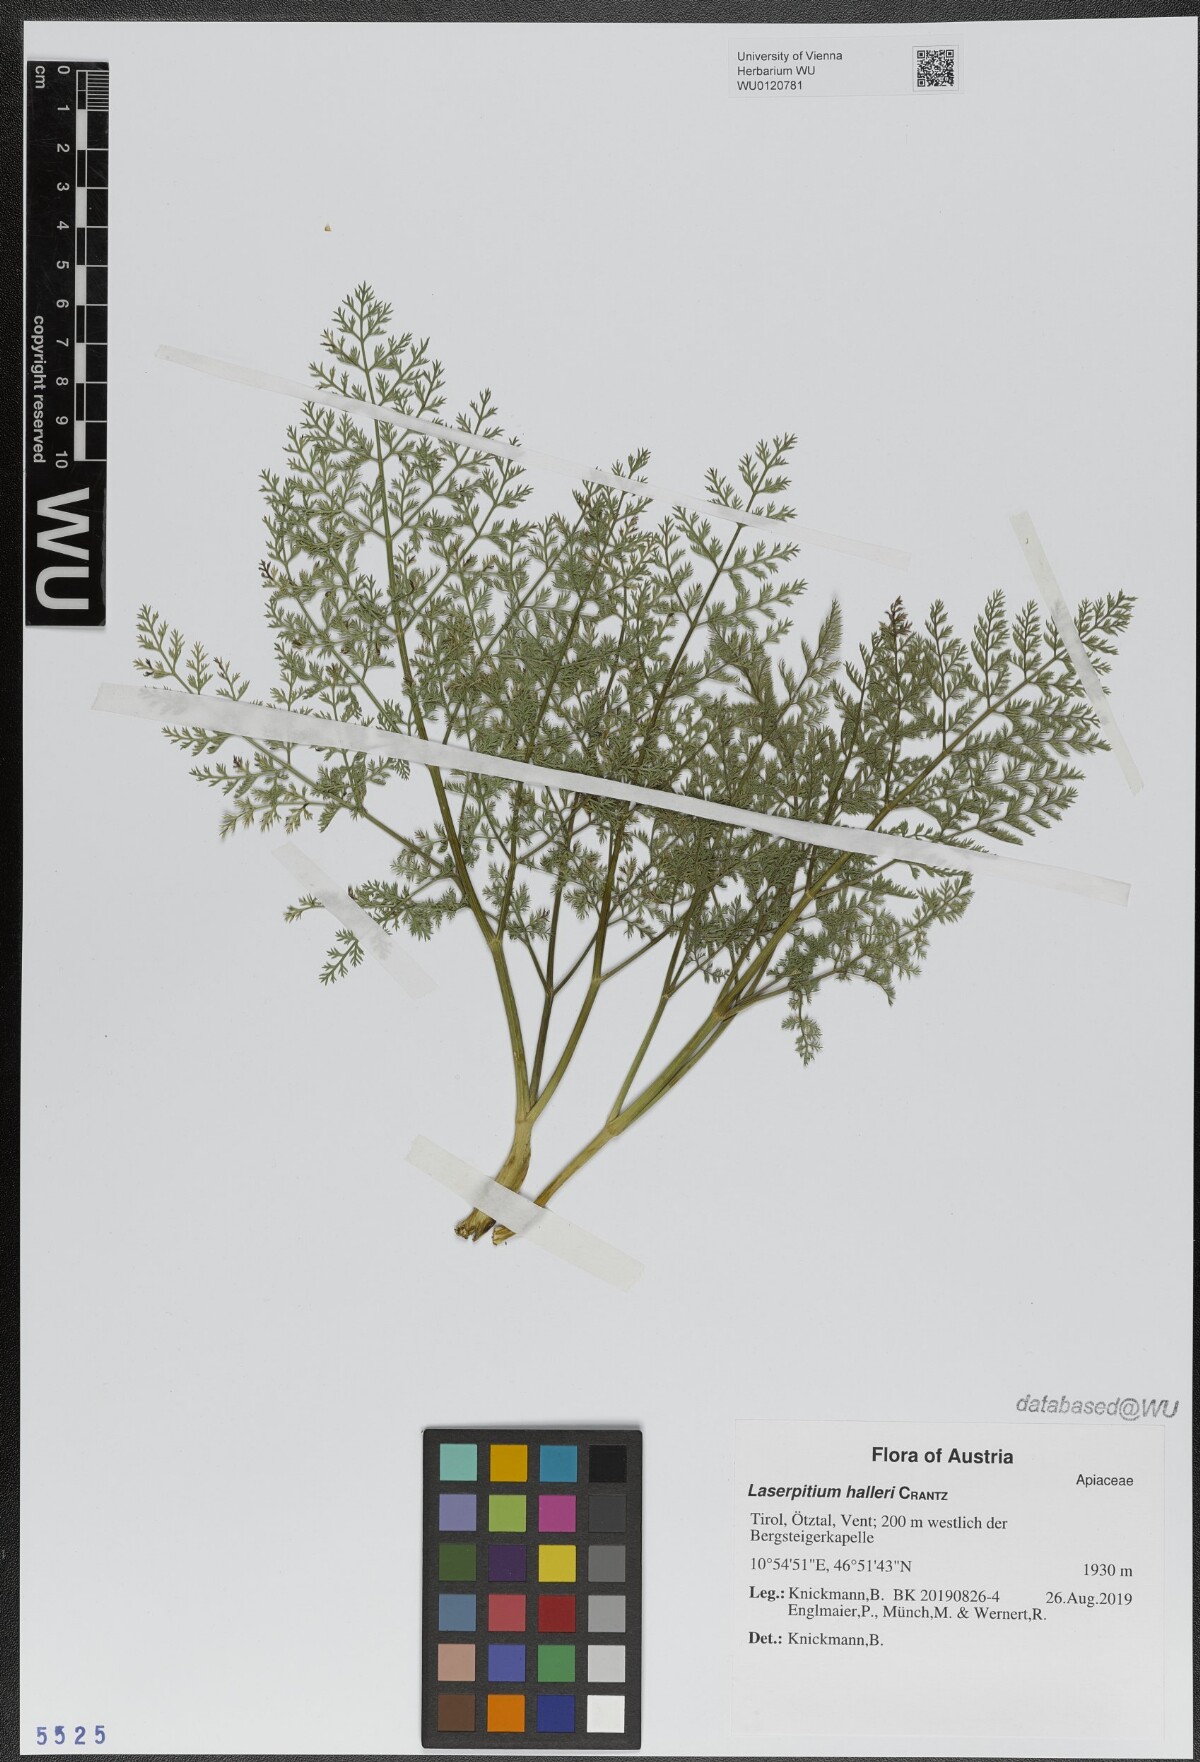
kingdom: Plantae
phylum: Tracheophyta
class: Magnoliopsida
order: Apiales
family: Apiaceae
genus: Laserpitium
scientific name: Laserpitium halleri
